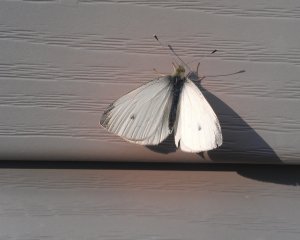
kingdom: Animalia
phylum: Arthropoda
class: Insecta
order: Lepidoptera
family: Pieridae
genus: Pieris
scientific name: Pieris rapae
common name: Cabbage White
